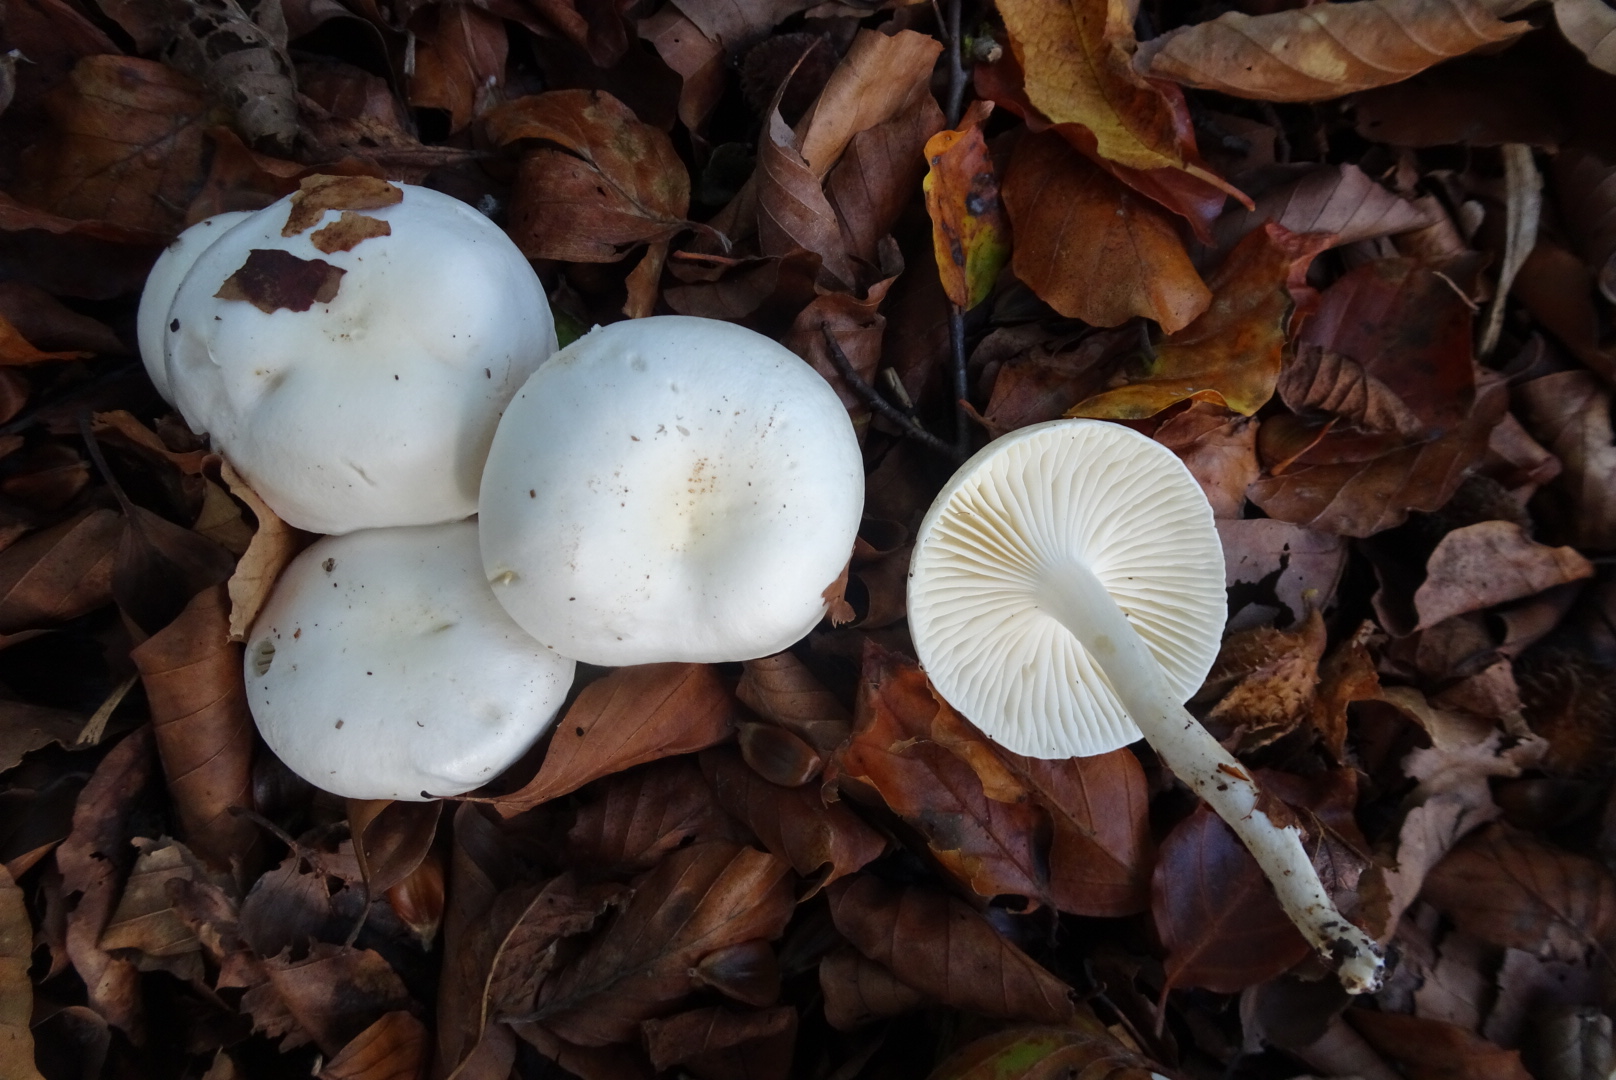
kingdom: Fungi
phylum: Basidiomycota
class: Agaricomycetes
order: Agaricales
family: Hygrophoraceae
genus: Hygrophorus
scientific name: Hygrophorus eburneus
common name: elfenbens-sneglehat
